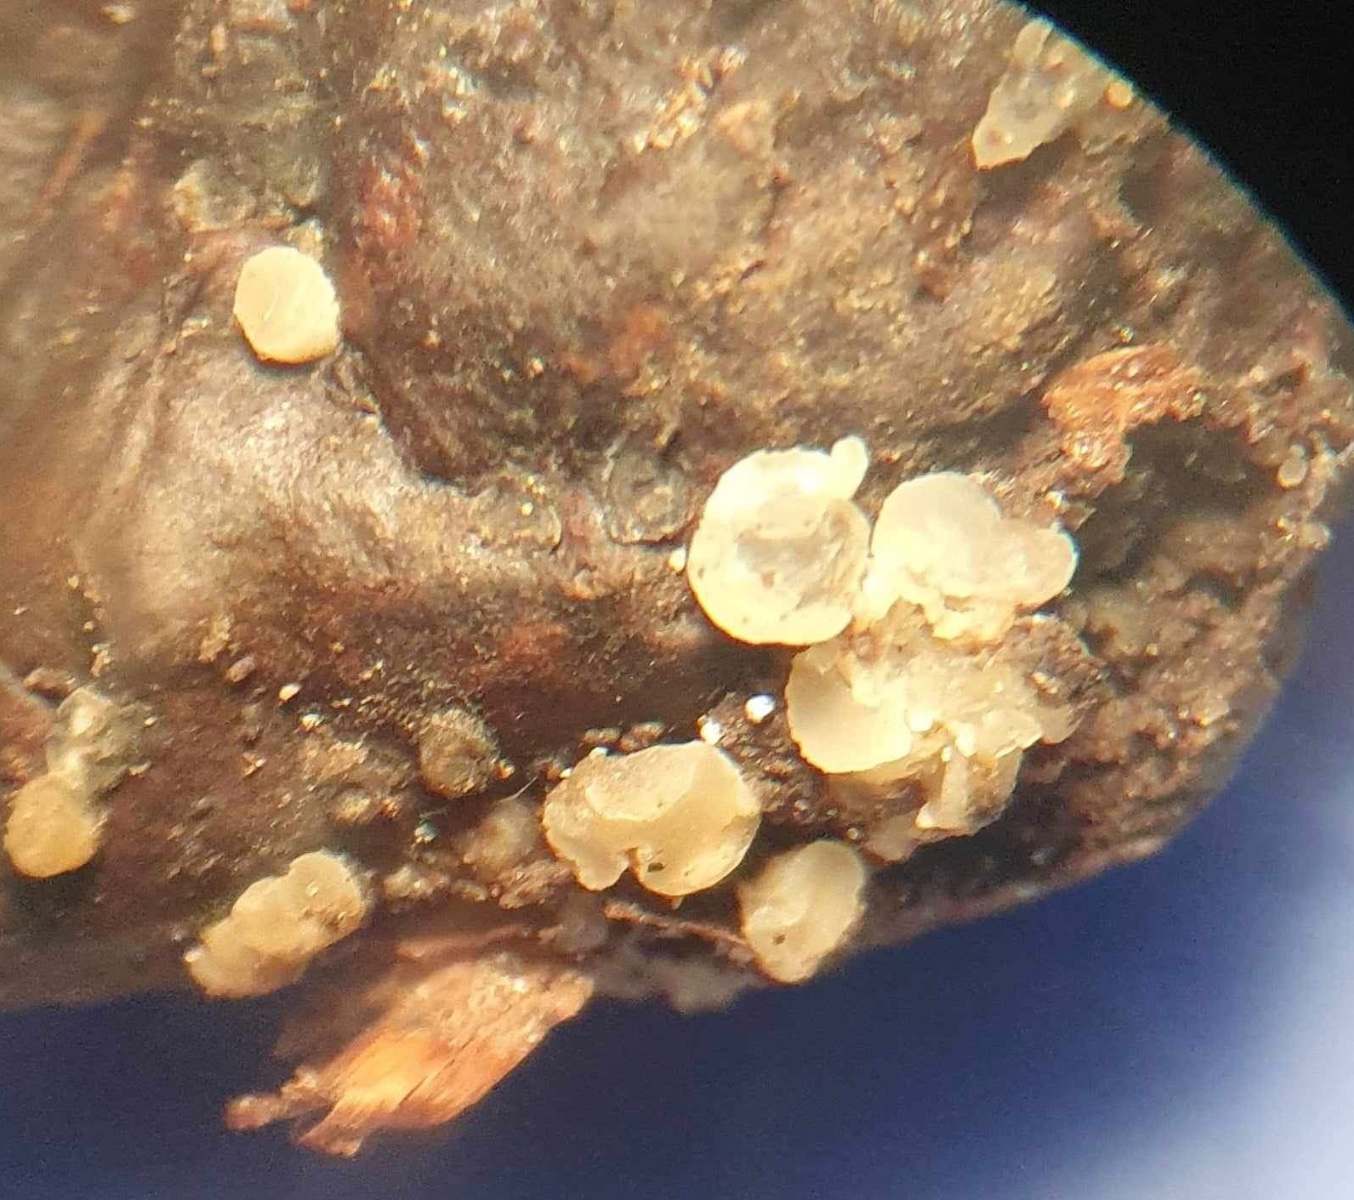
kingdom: Fungi
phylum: Ascomycota
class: Leotiomycetes
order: Helotiales
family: Helotiaceae
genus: Hymenoscyphus
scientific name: Hymenoscyphus fagineus
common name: vellugtende stilkskive
